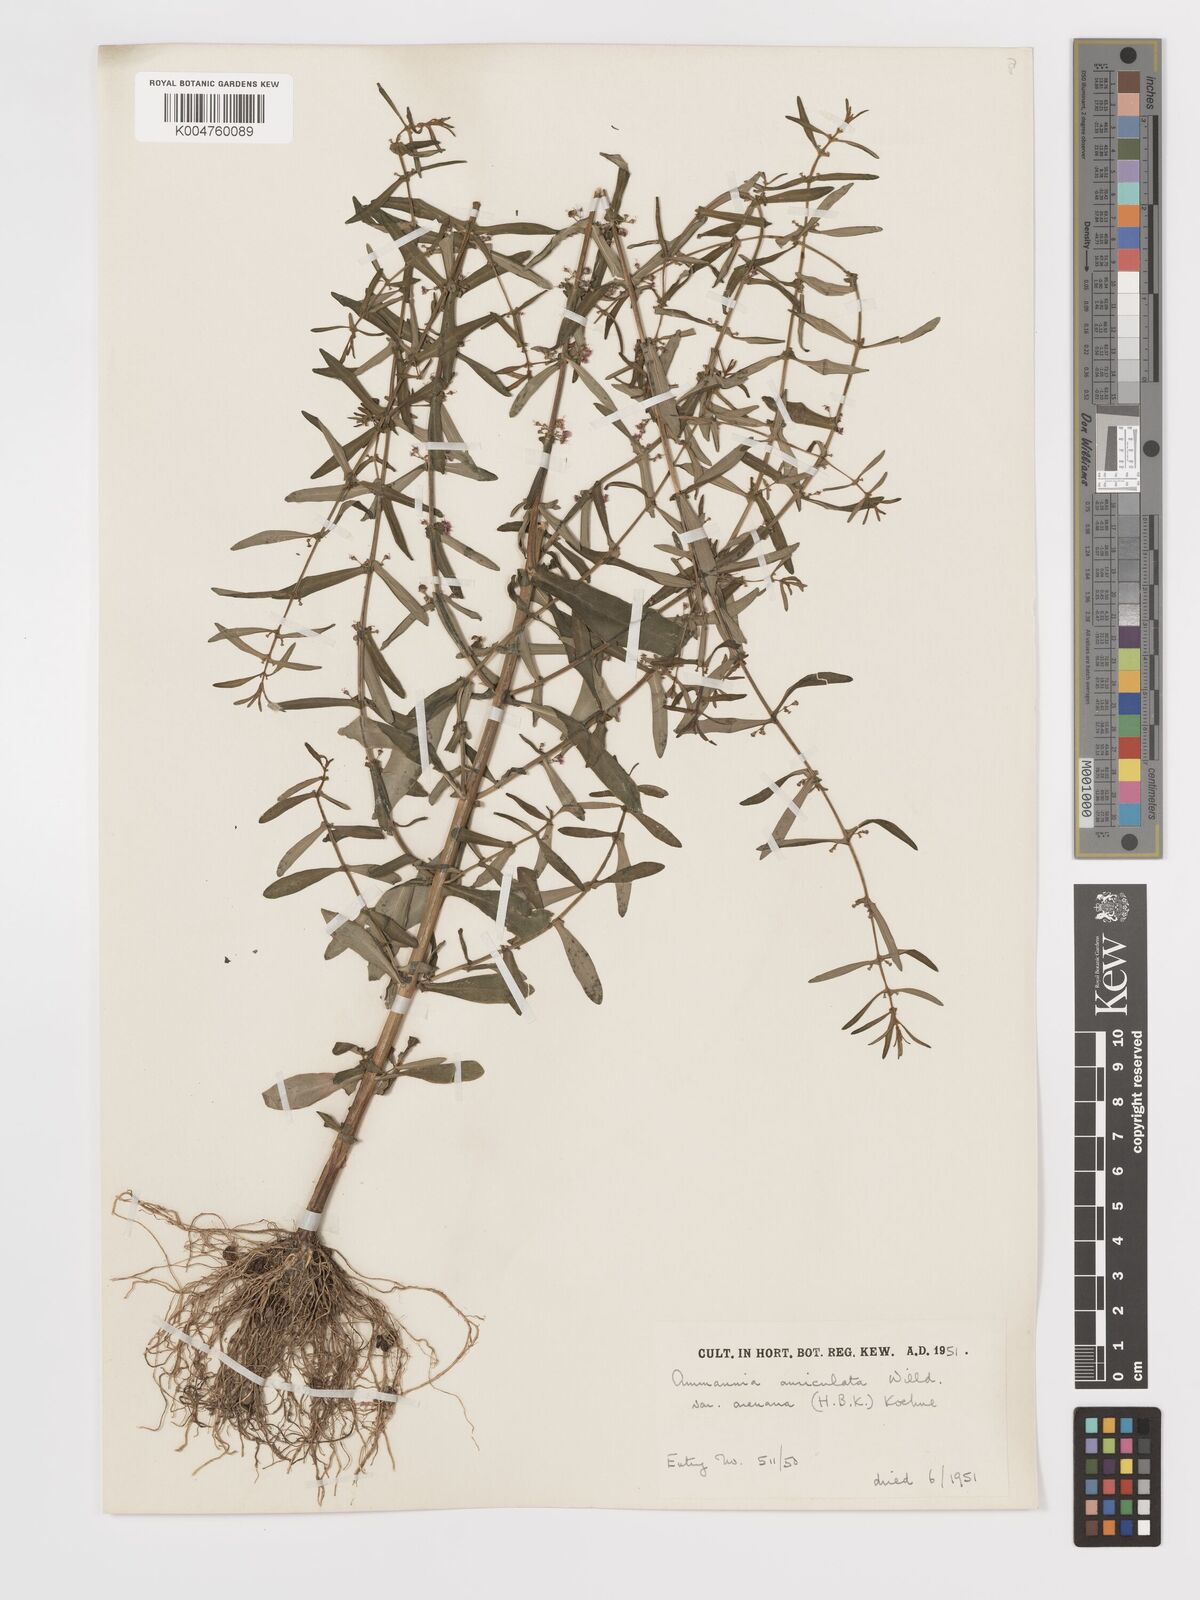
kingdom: Plantae
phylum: Tracheophyta
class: Magnoliopsida
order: Myrtales
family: Lythraceae
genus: Ammannia
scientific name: Ammannia auriculata
